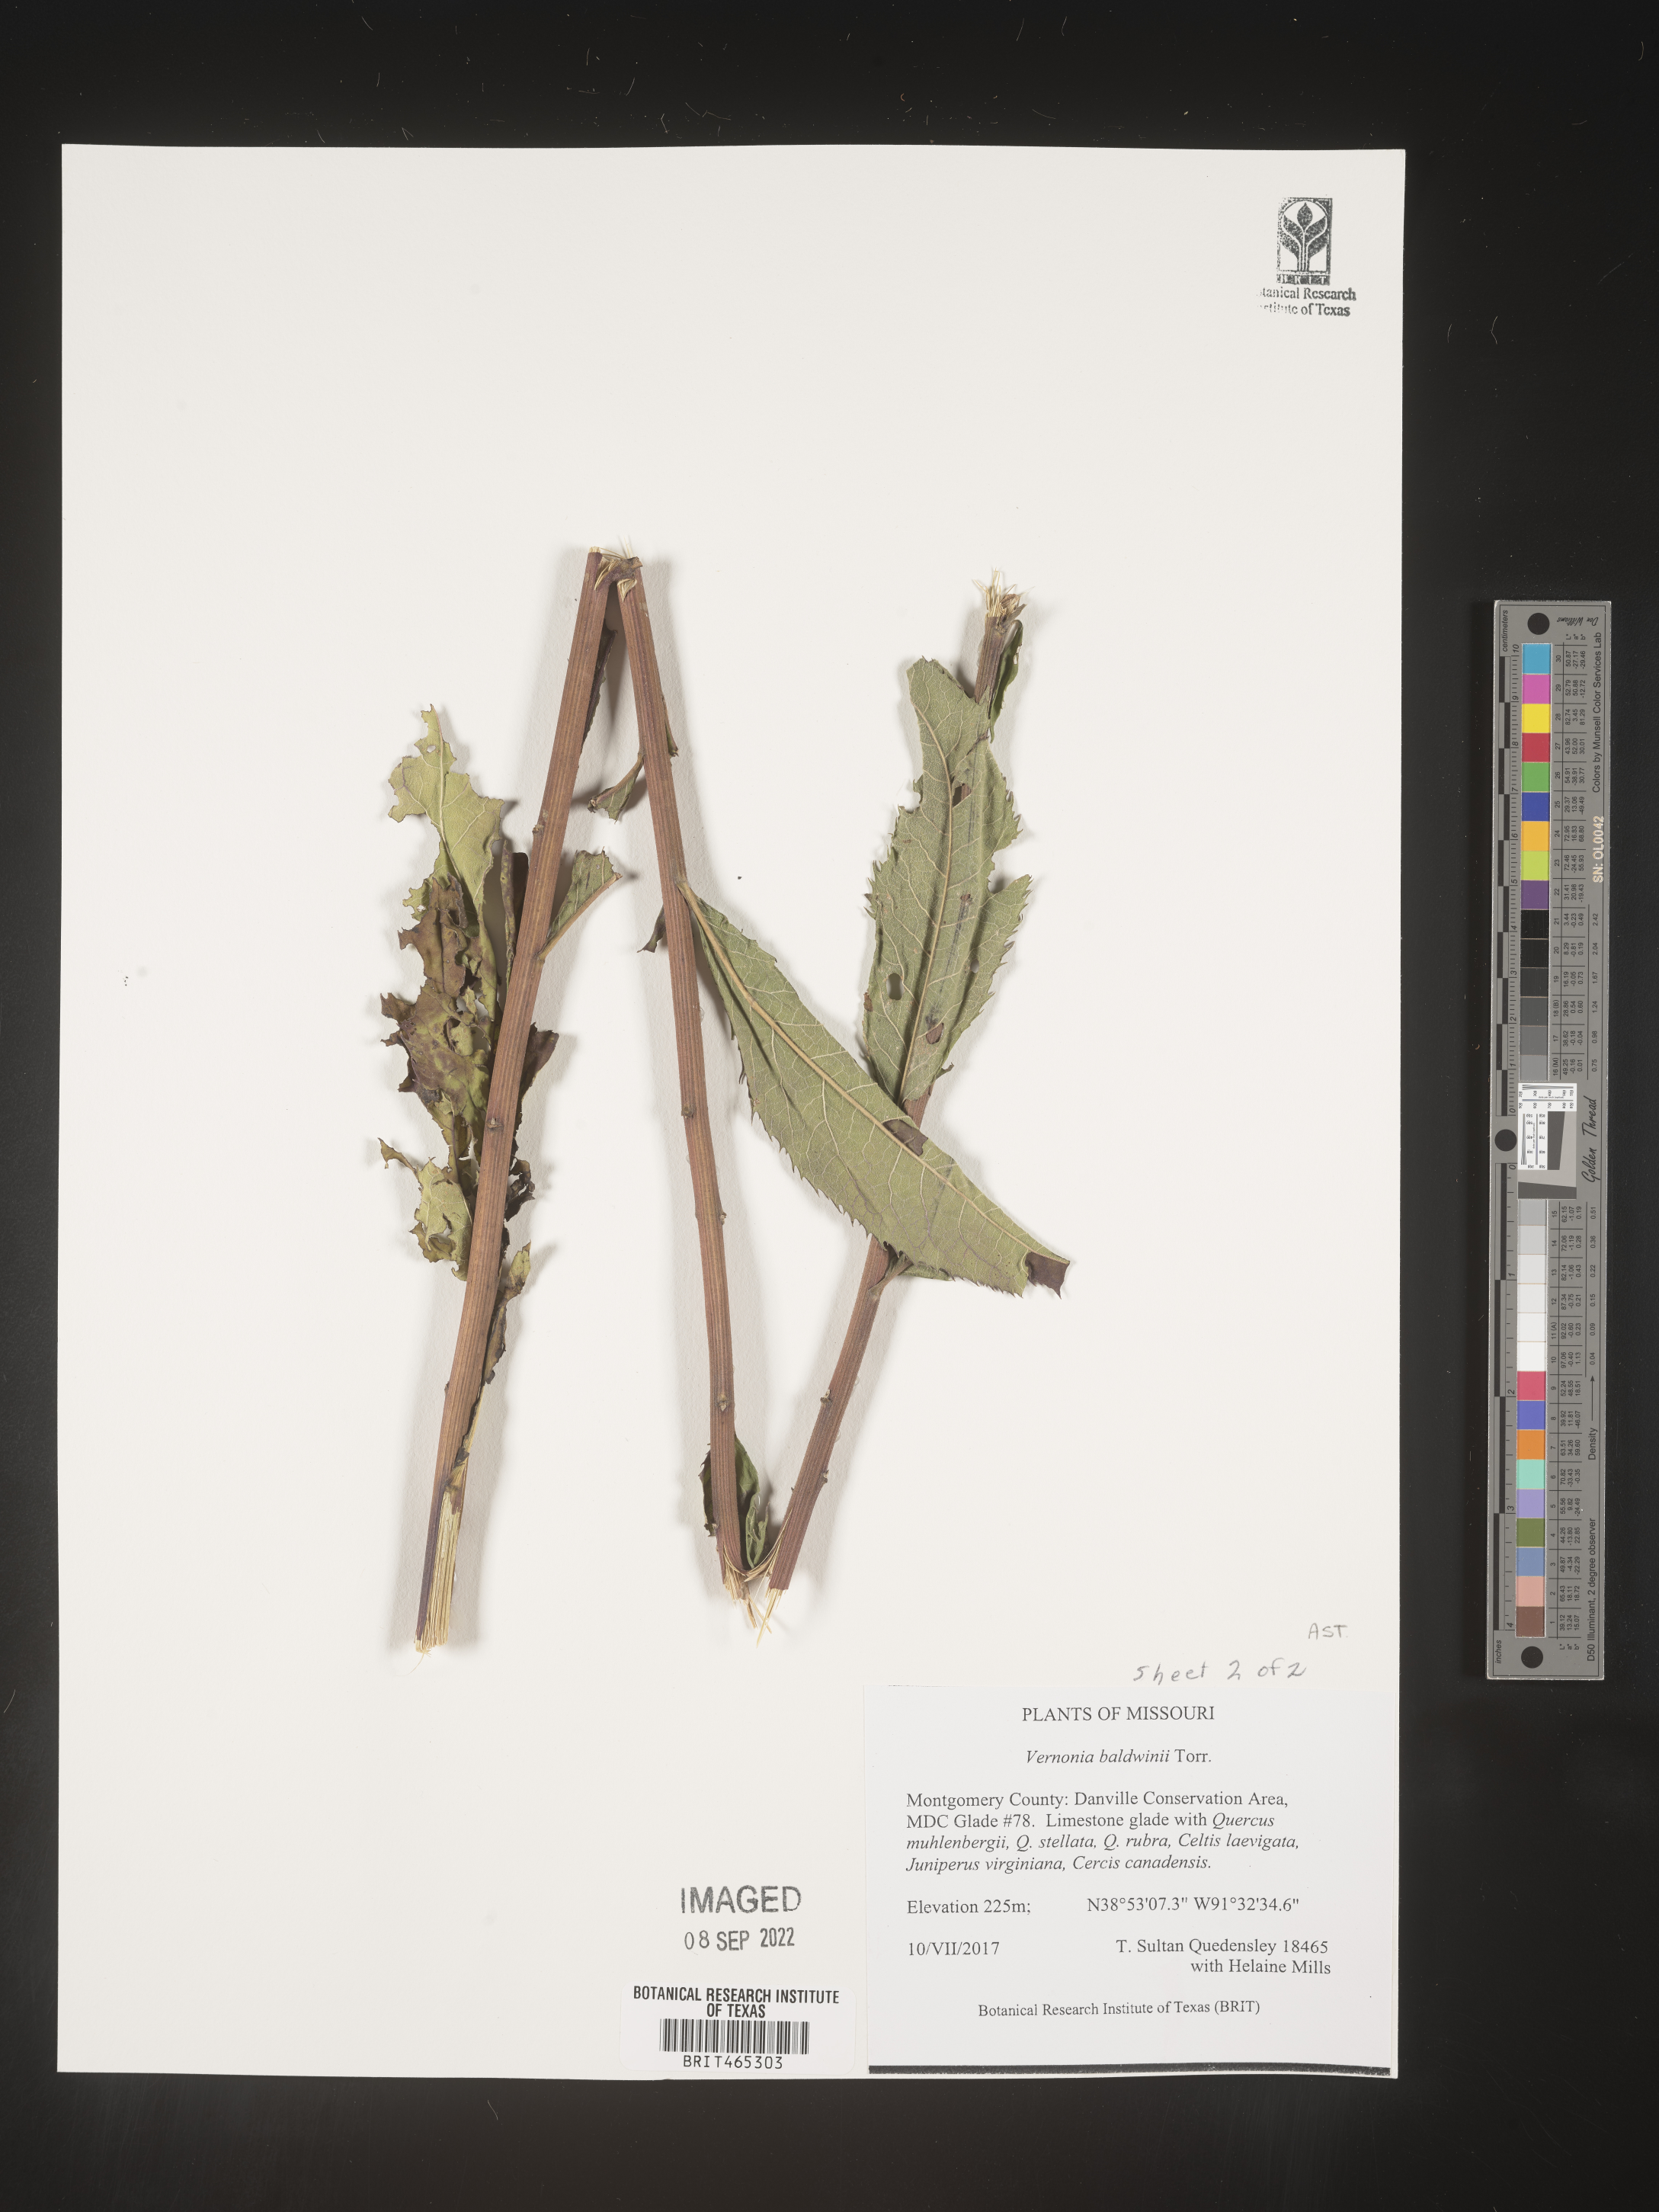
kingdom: Plantae
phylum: Tracheophyta
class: Magnoliopsida
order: Asterales
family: Asteraceae
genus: Vernonia
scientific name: Vernonia baldwinii
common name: Western ironweed
